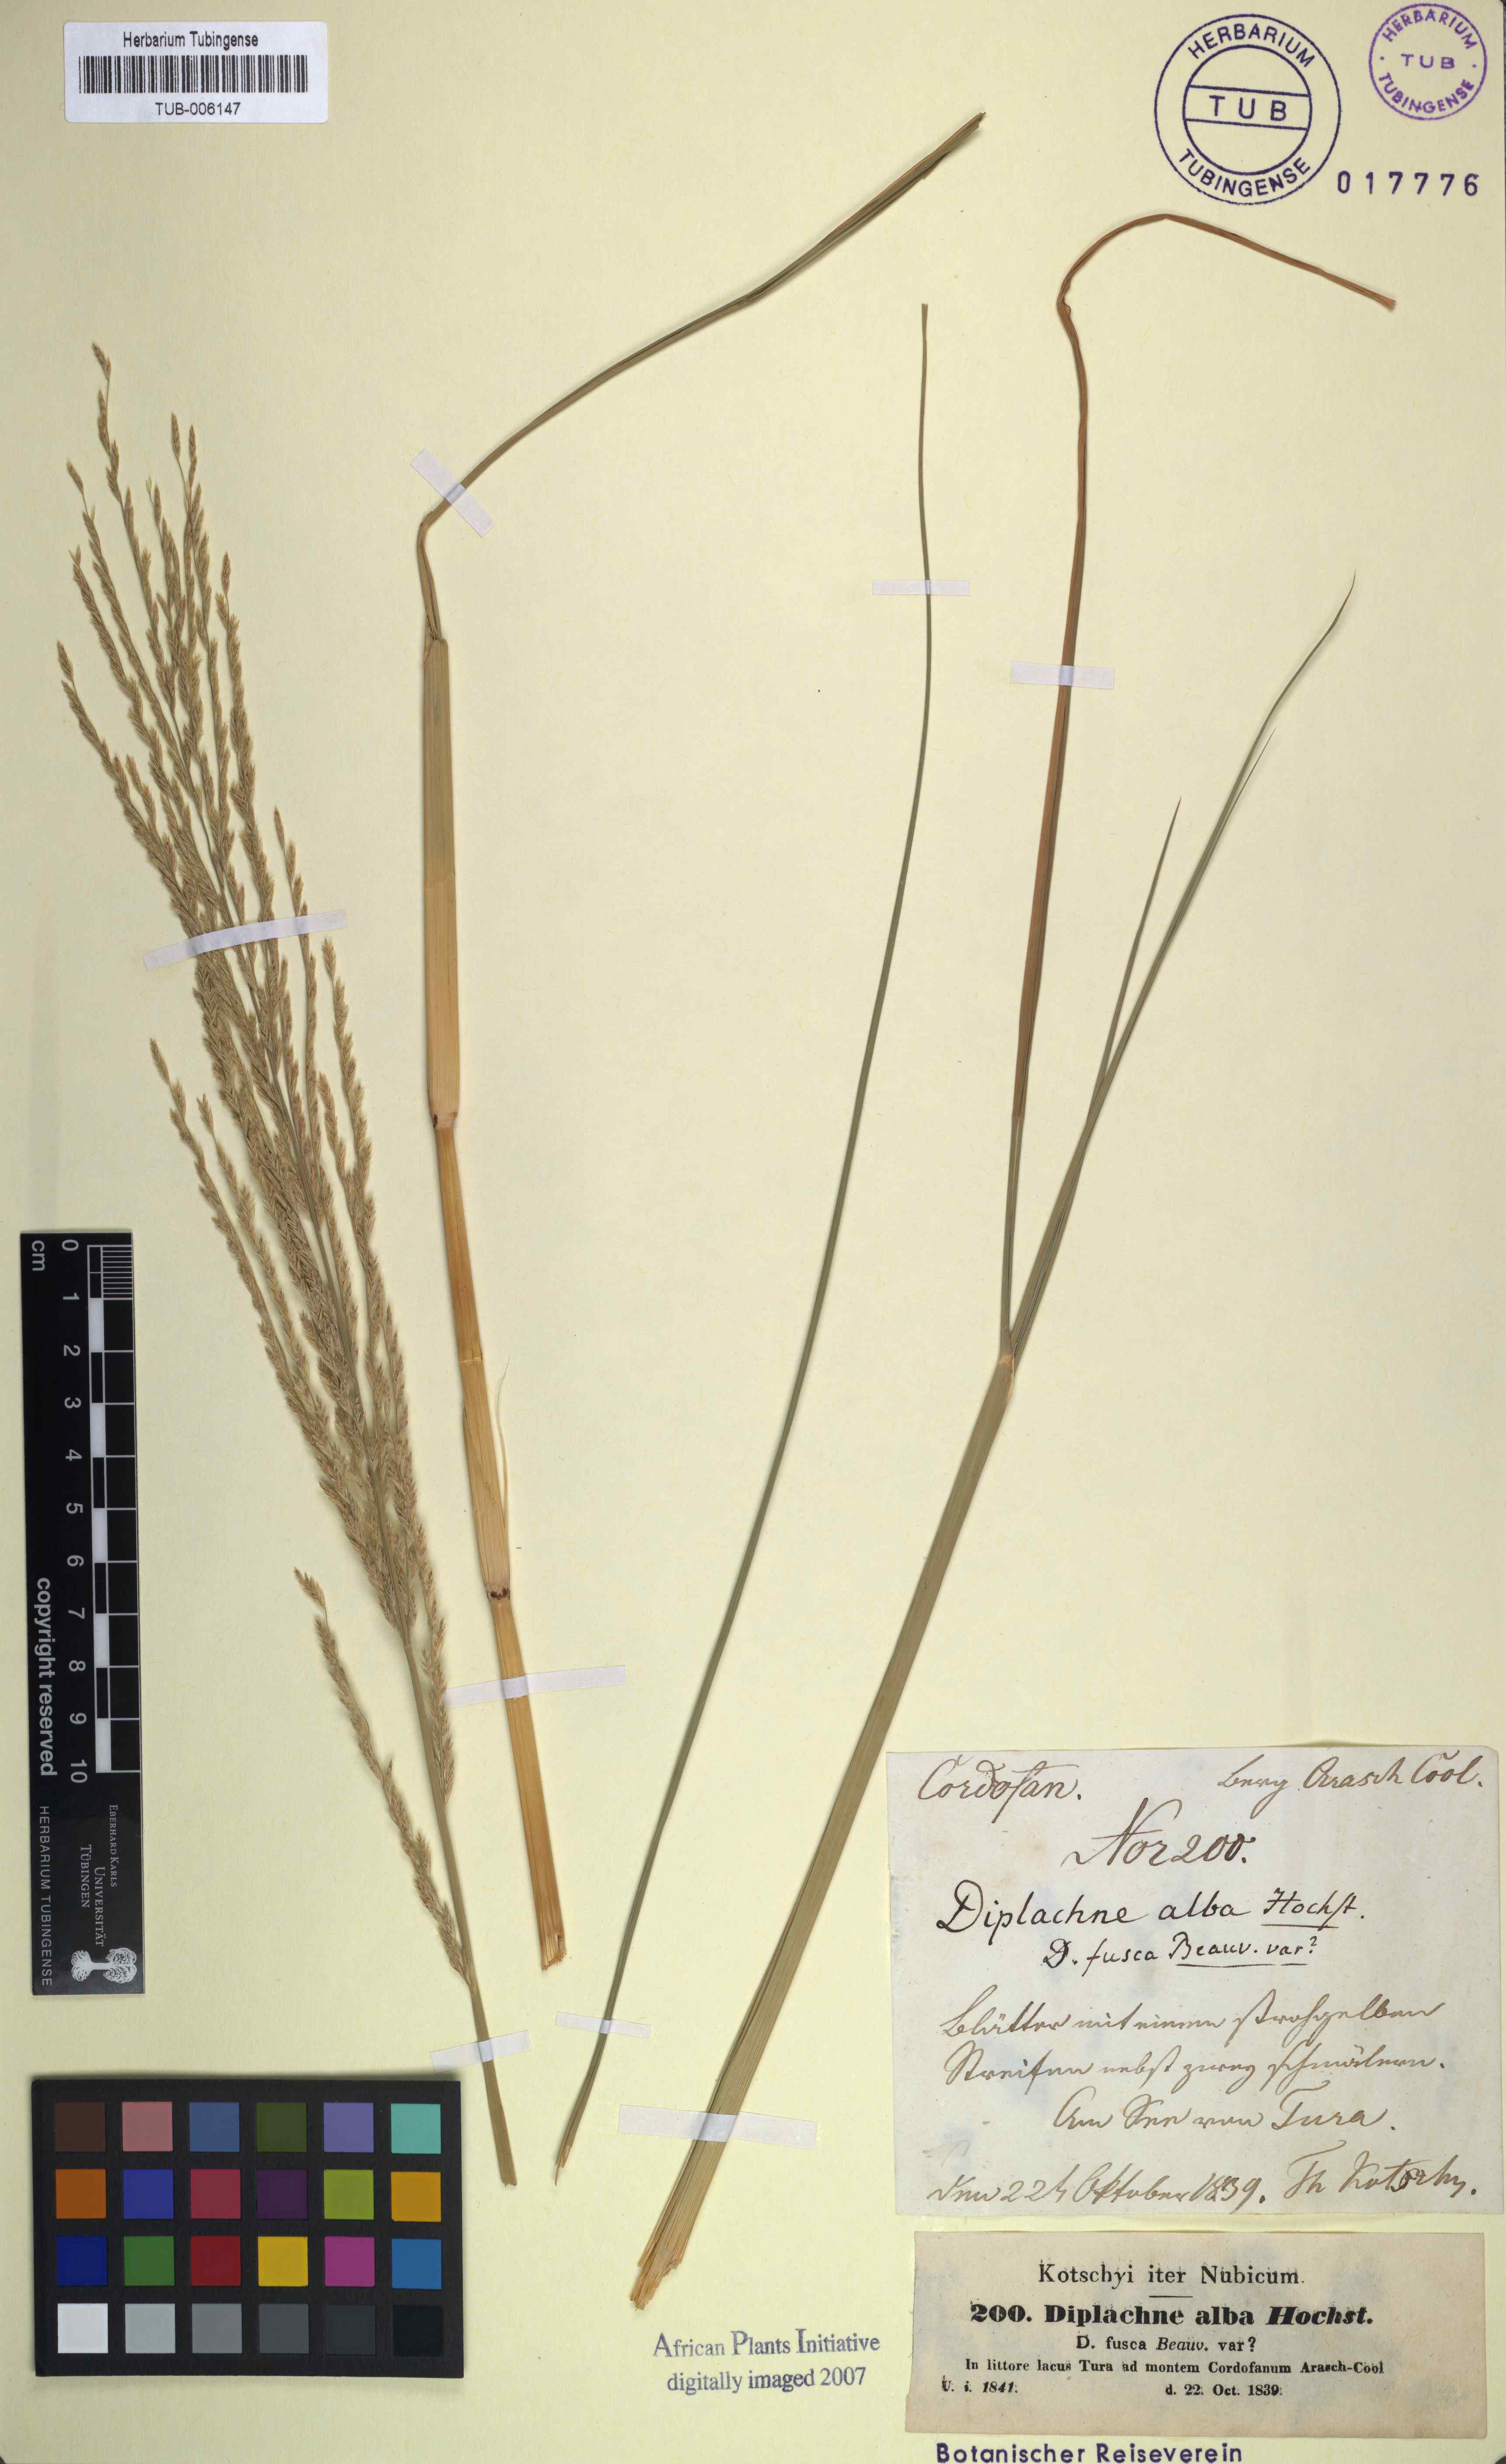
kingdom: Plantae
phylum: Tracheophyta
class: Liliopsida
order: Poales
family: Poaceae
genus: Diplachne
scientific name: Diplachne alba
